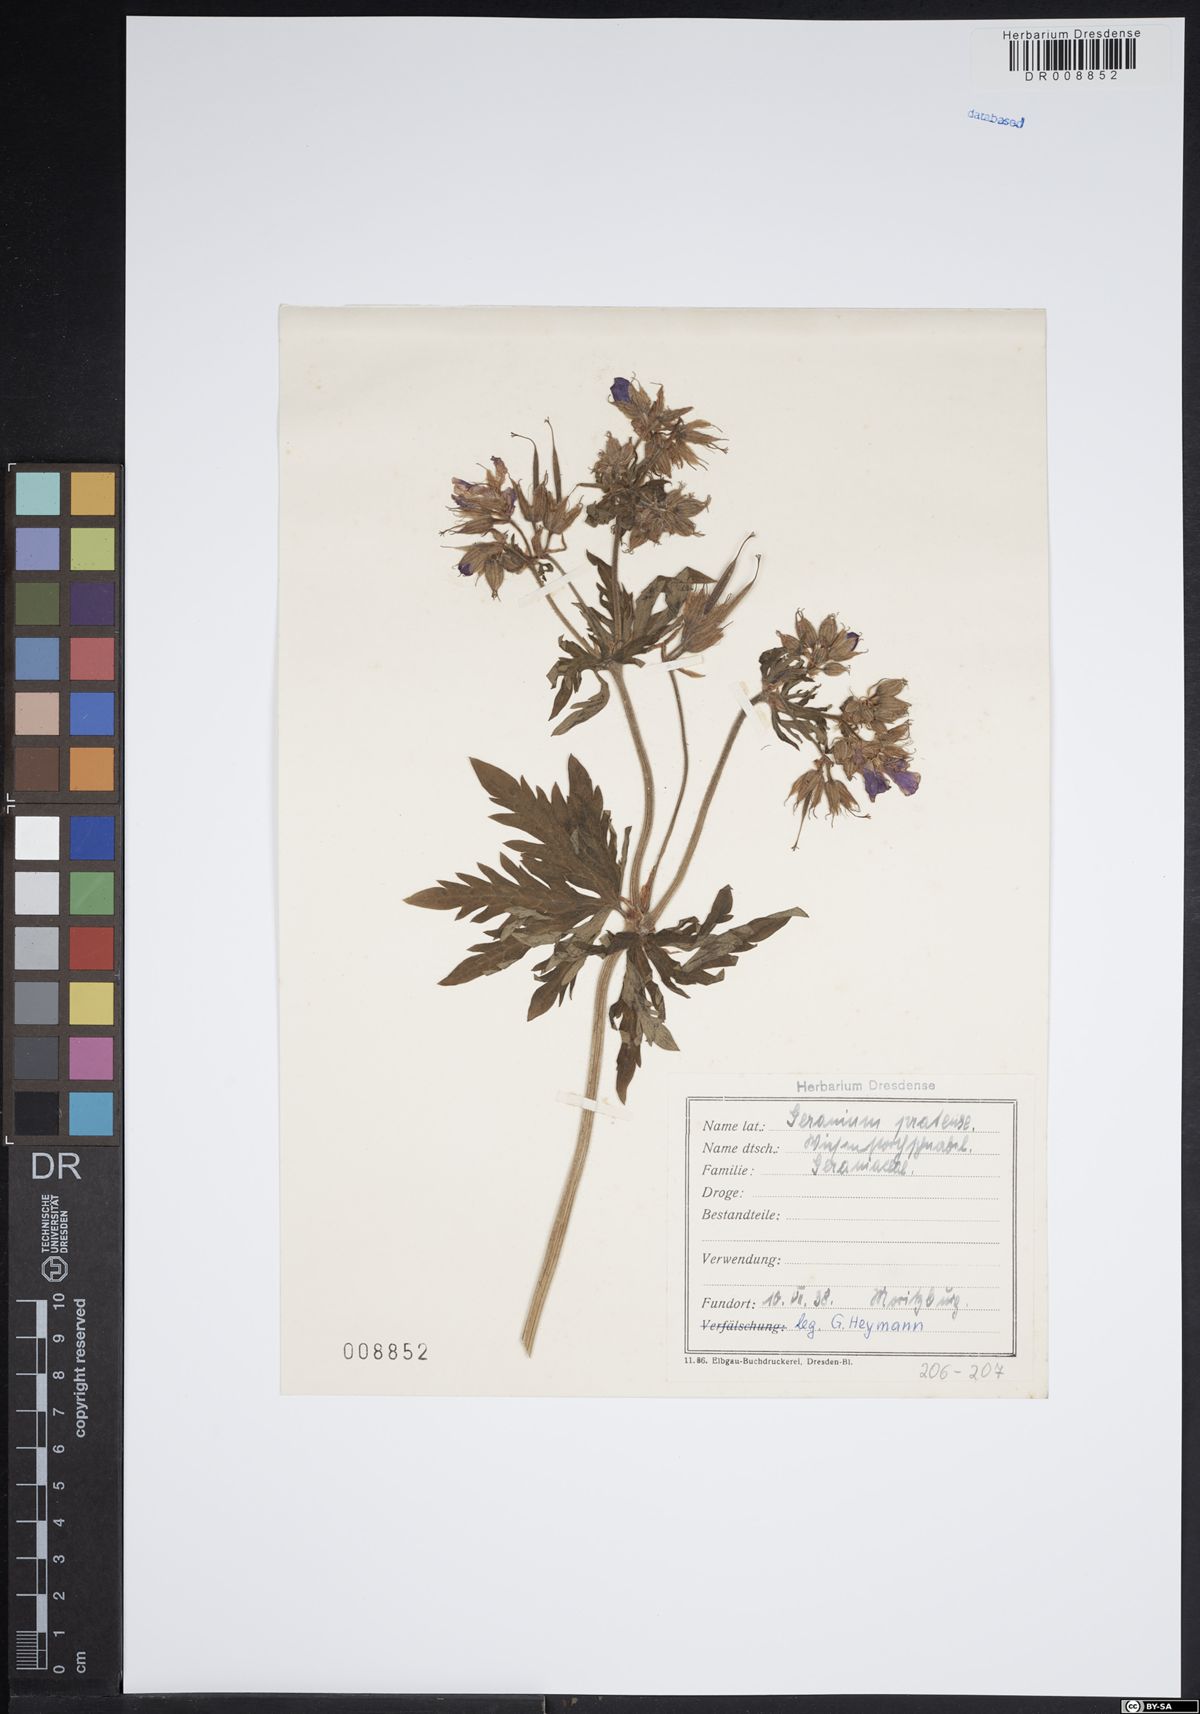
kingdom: Plantae
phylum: Tracheophyta
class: Magnoliopsida
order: Geraniales
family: Geraniaceae
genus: Geranium
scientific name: Geranium pratense
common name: Meadow crane's-bill
